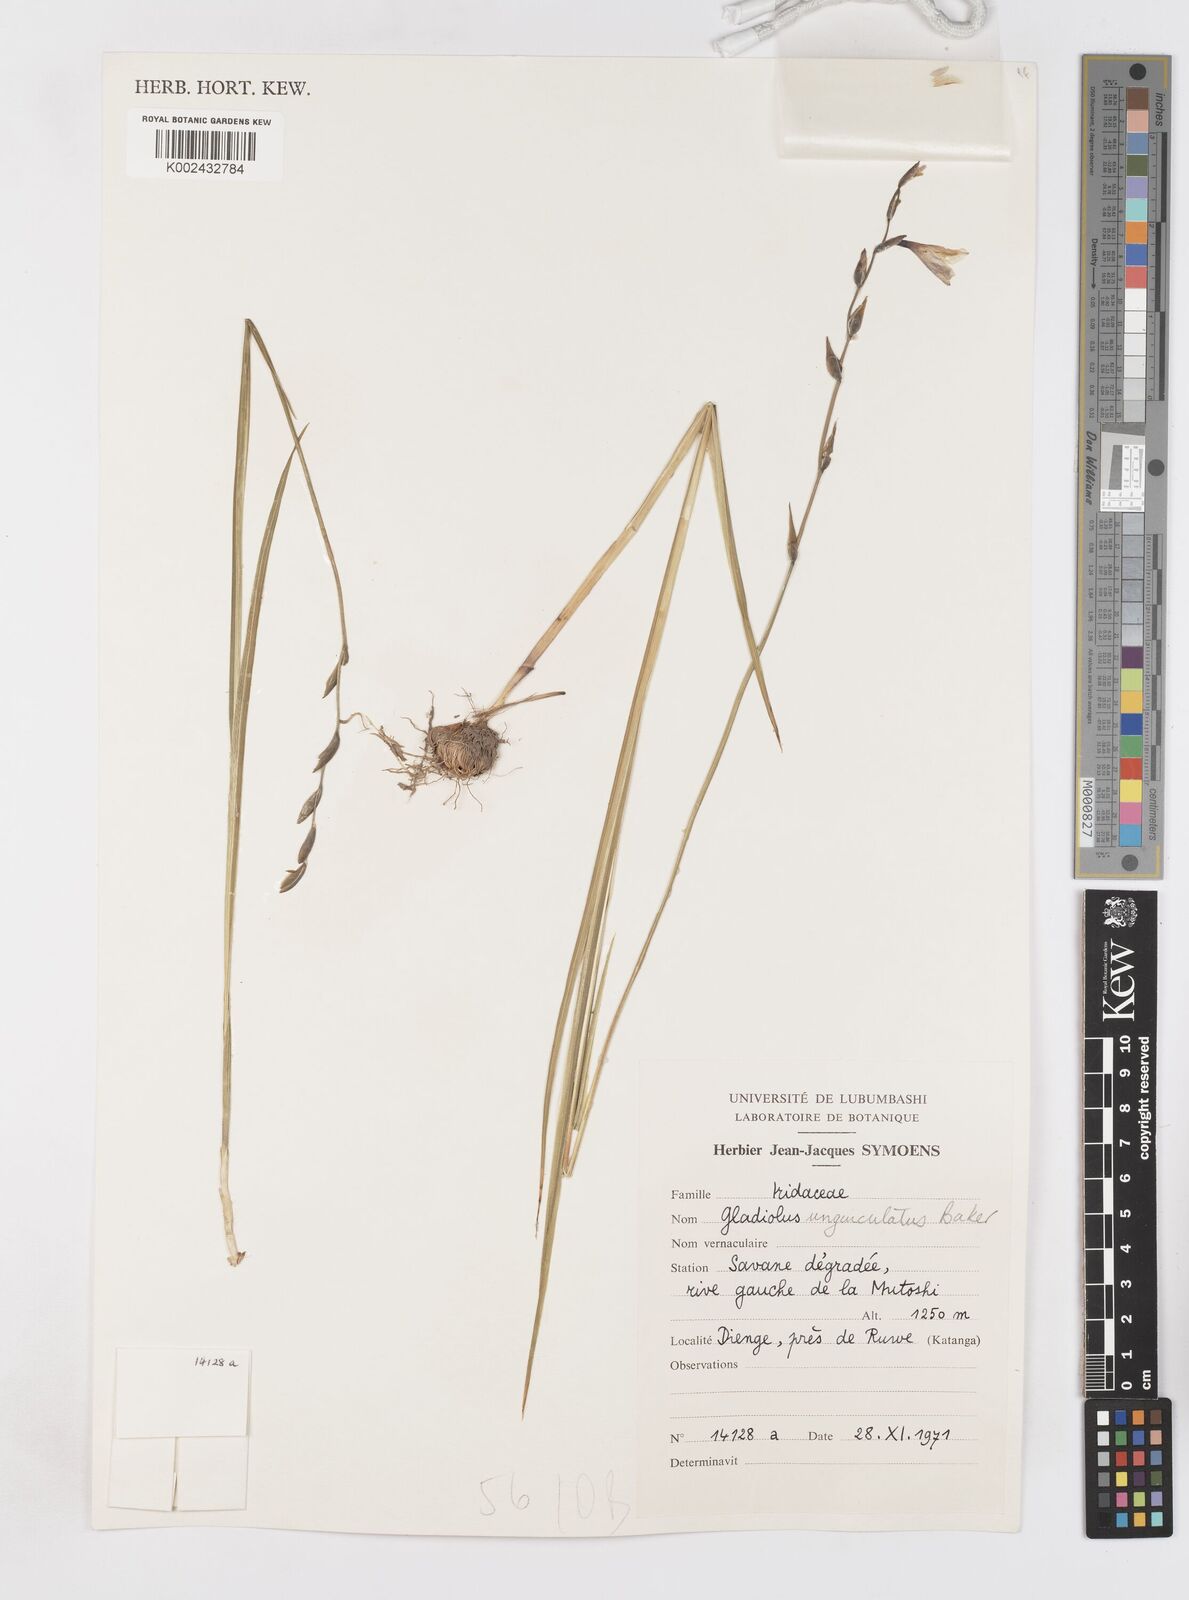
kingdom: Plantae
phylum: Tracheophyta
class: Liliopsida
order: Asparagales
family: Iridaceae
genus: Gladiolus
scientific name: Gladiolus unguiculatus
